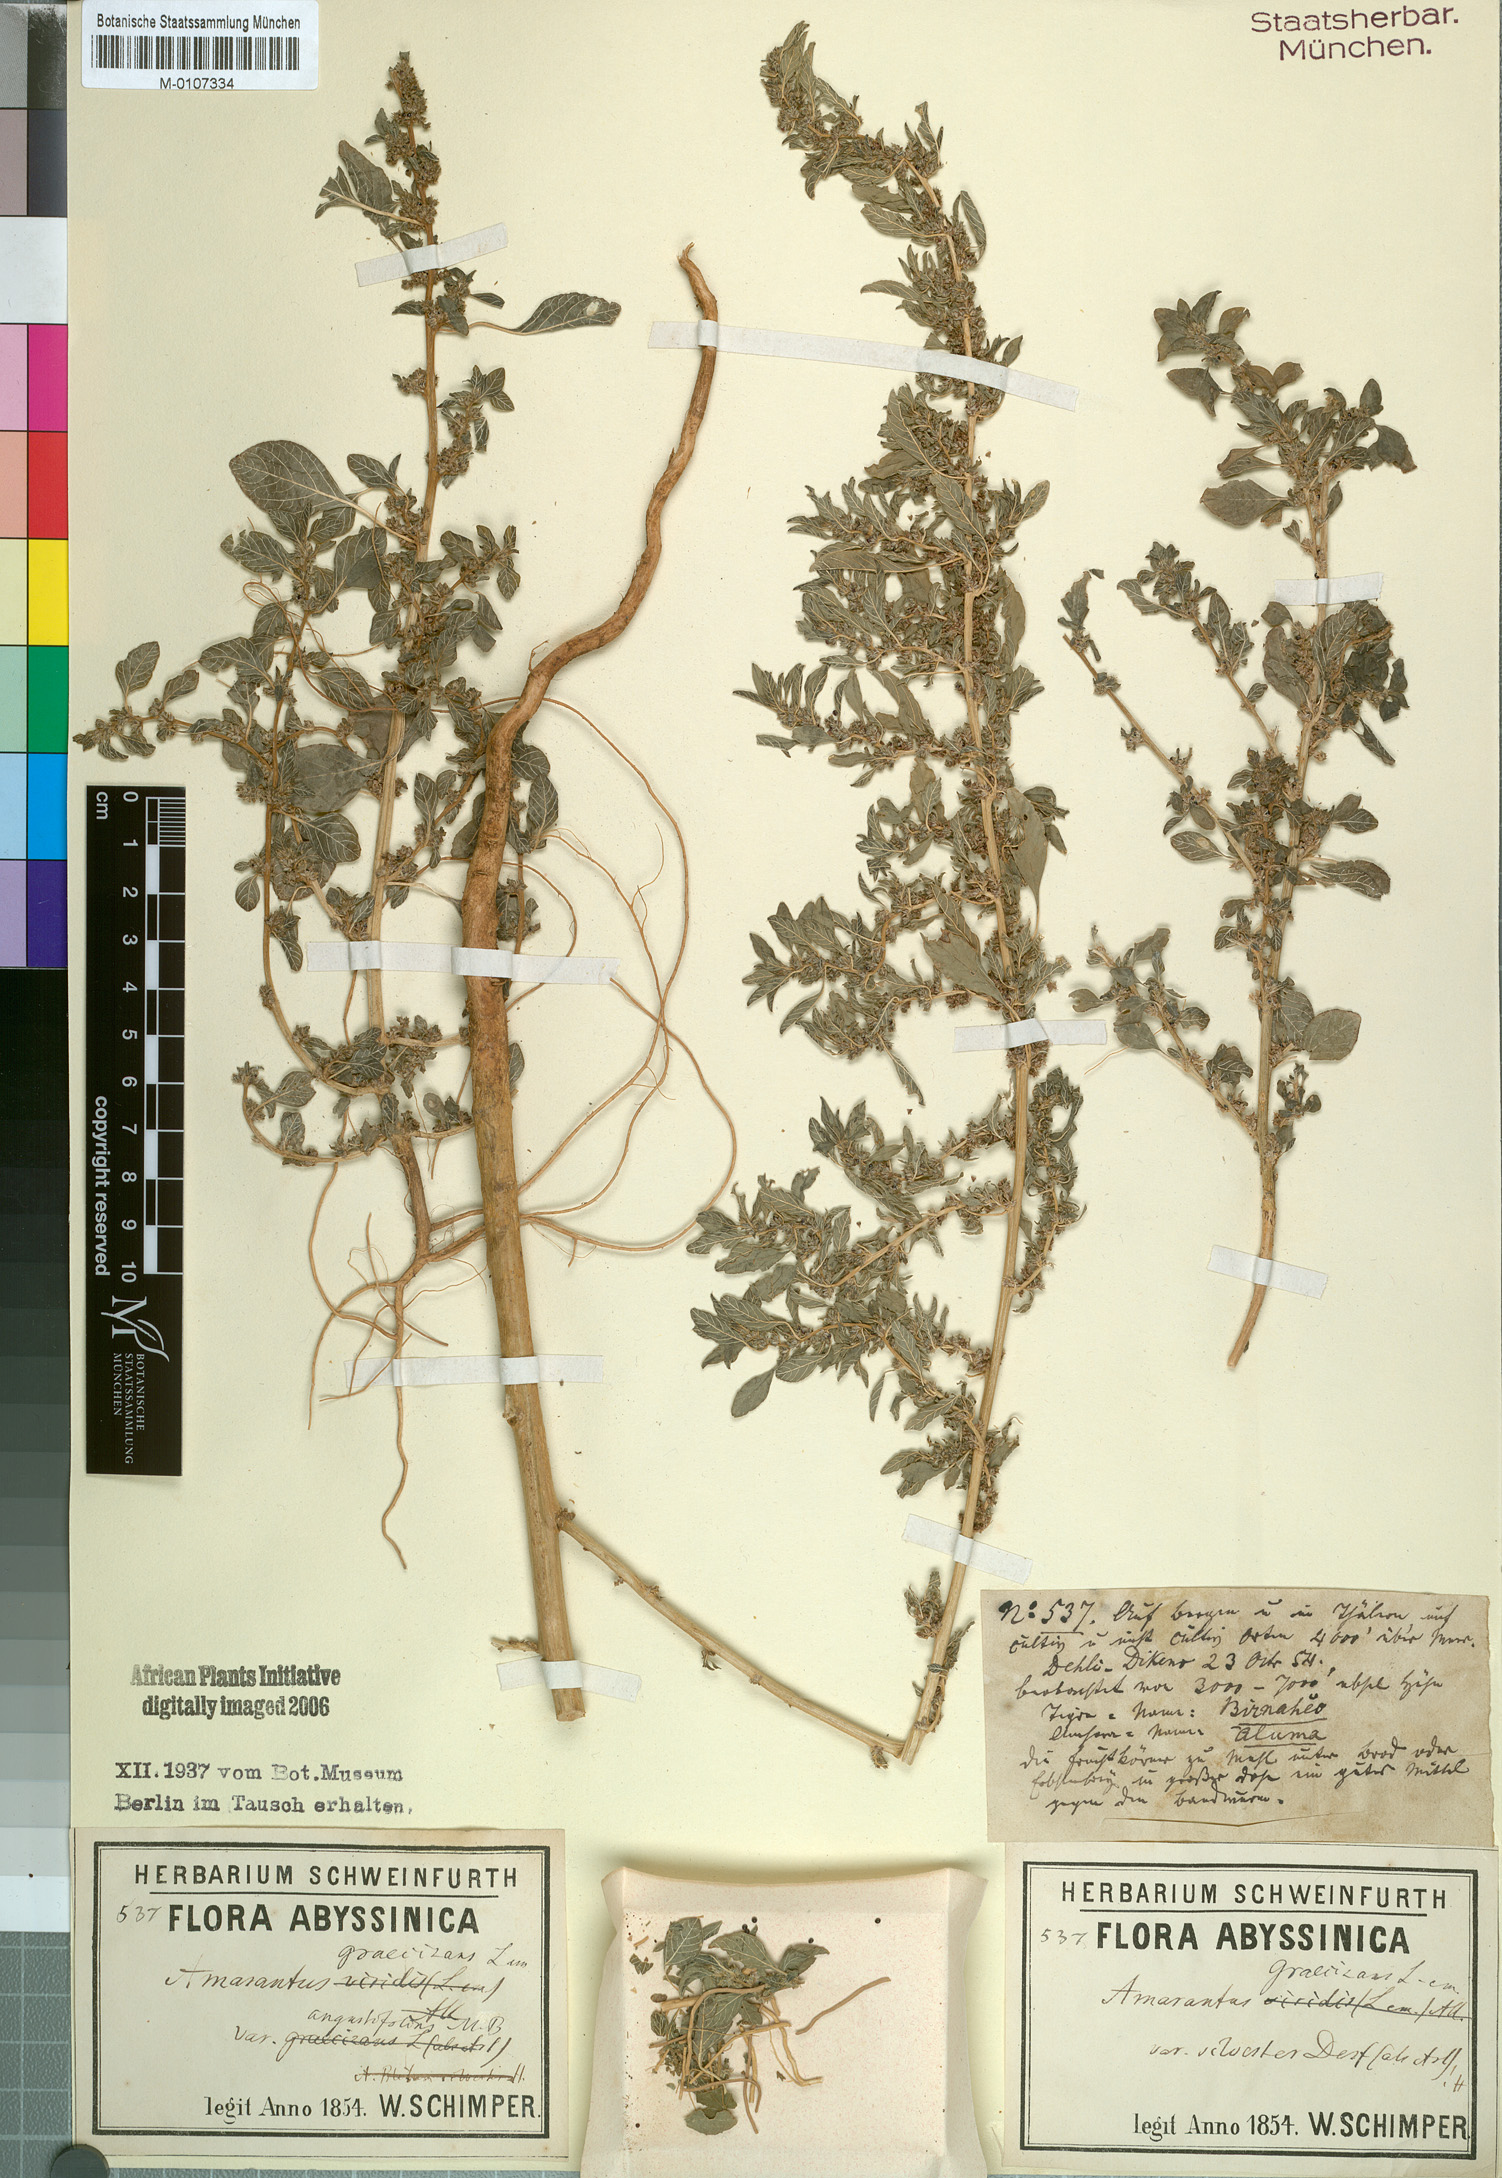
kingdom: Plantae
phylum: Tracheophyta
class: Magnoliopsida
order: Caryophyllales
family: Amaranthaceae
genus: Cyathula
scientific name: Cyathula cylindrica
